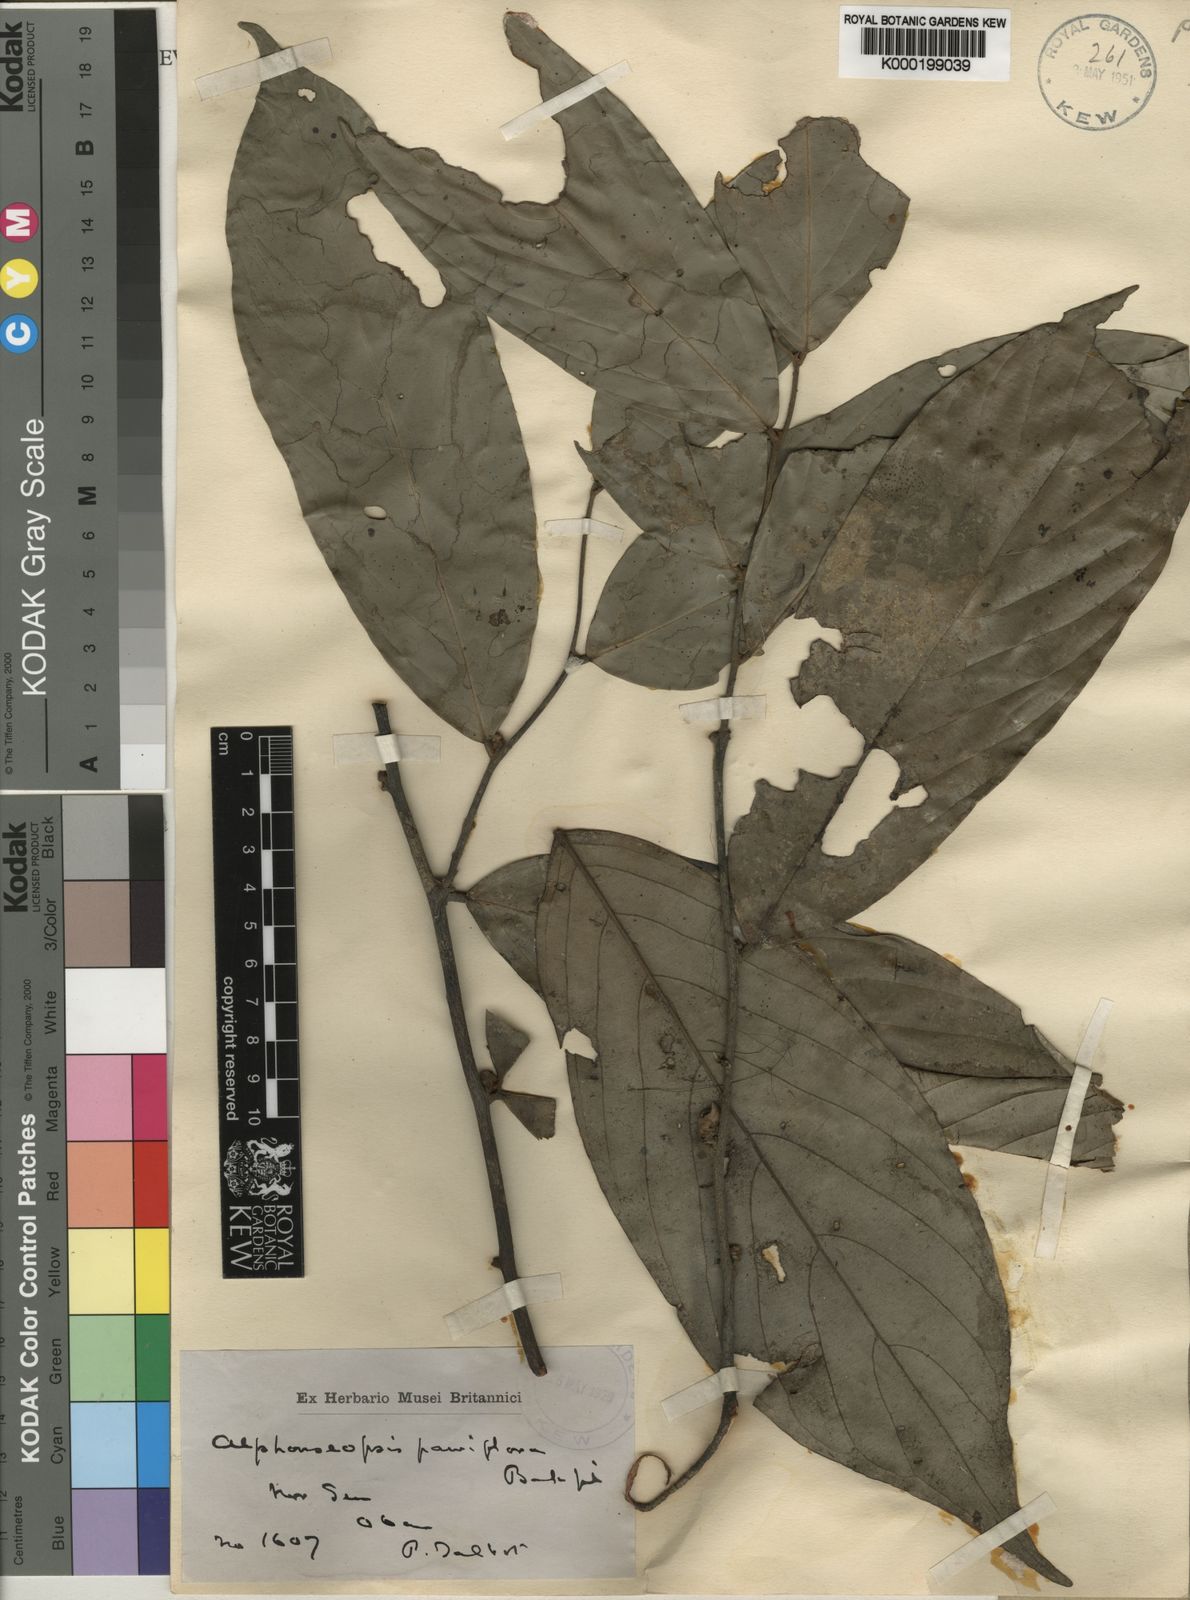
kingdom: Plantae
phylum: Tracheophyta
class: Magnoliopsida
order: Magnoliales
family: Annonaceae
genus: Polyceratocarpus
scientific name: Polyceratocarpus parviflorus
